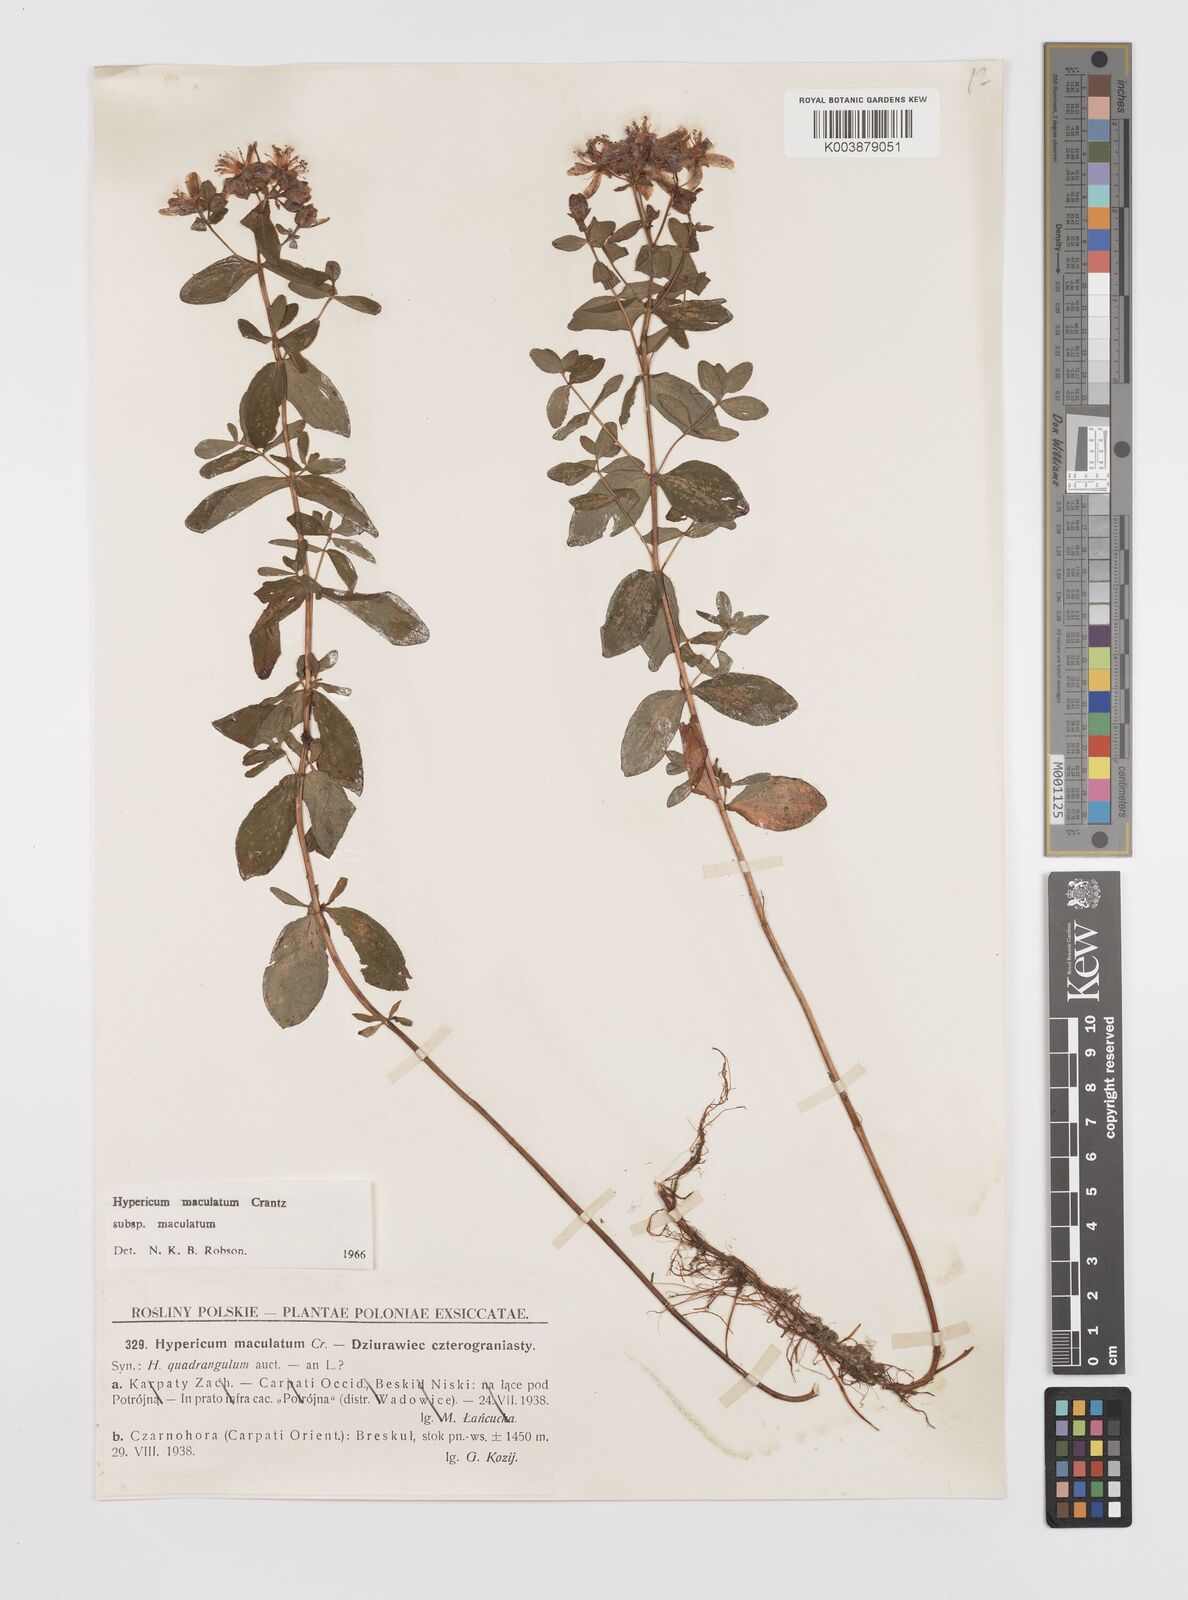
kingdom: Plantae
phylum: Tracheophyta
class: Magnoliopsida
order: Malpighiales
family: Hypericaceae
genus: Hypericum
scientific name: Hypericum maculatum
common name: Imperforate st. john's-wort
